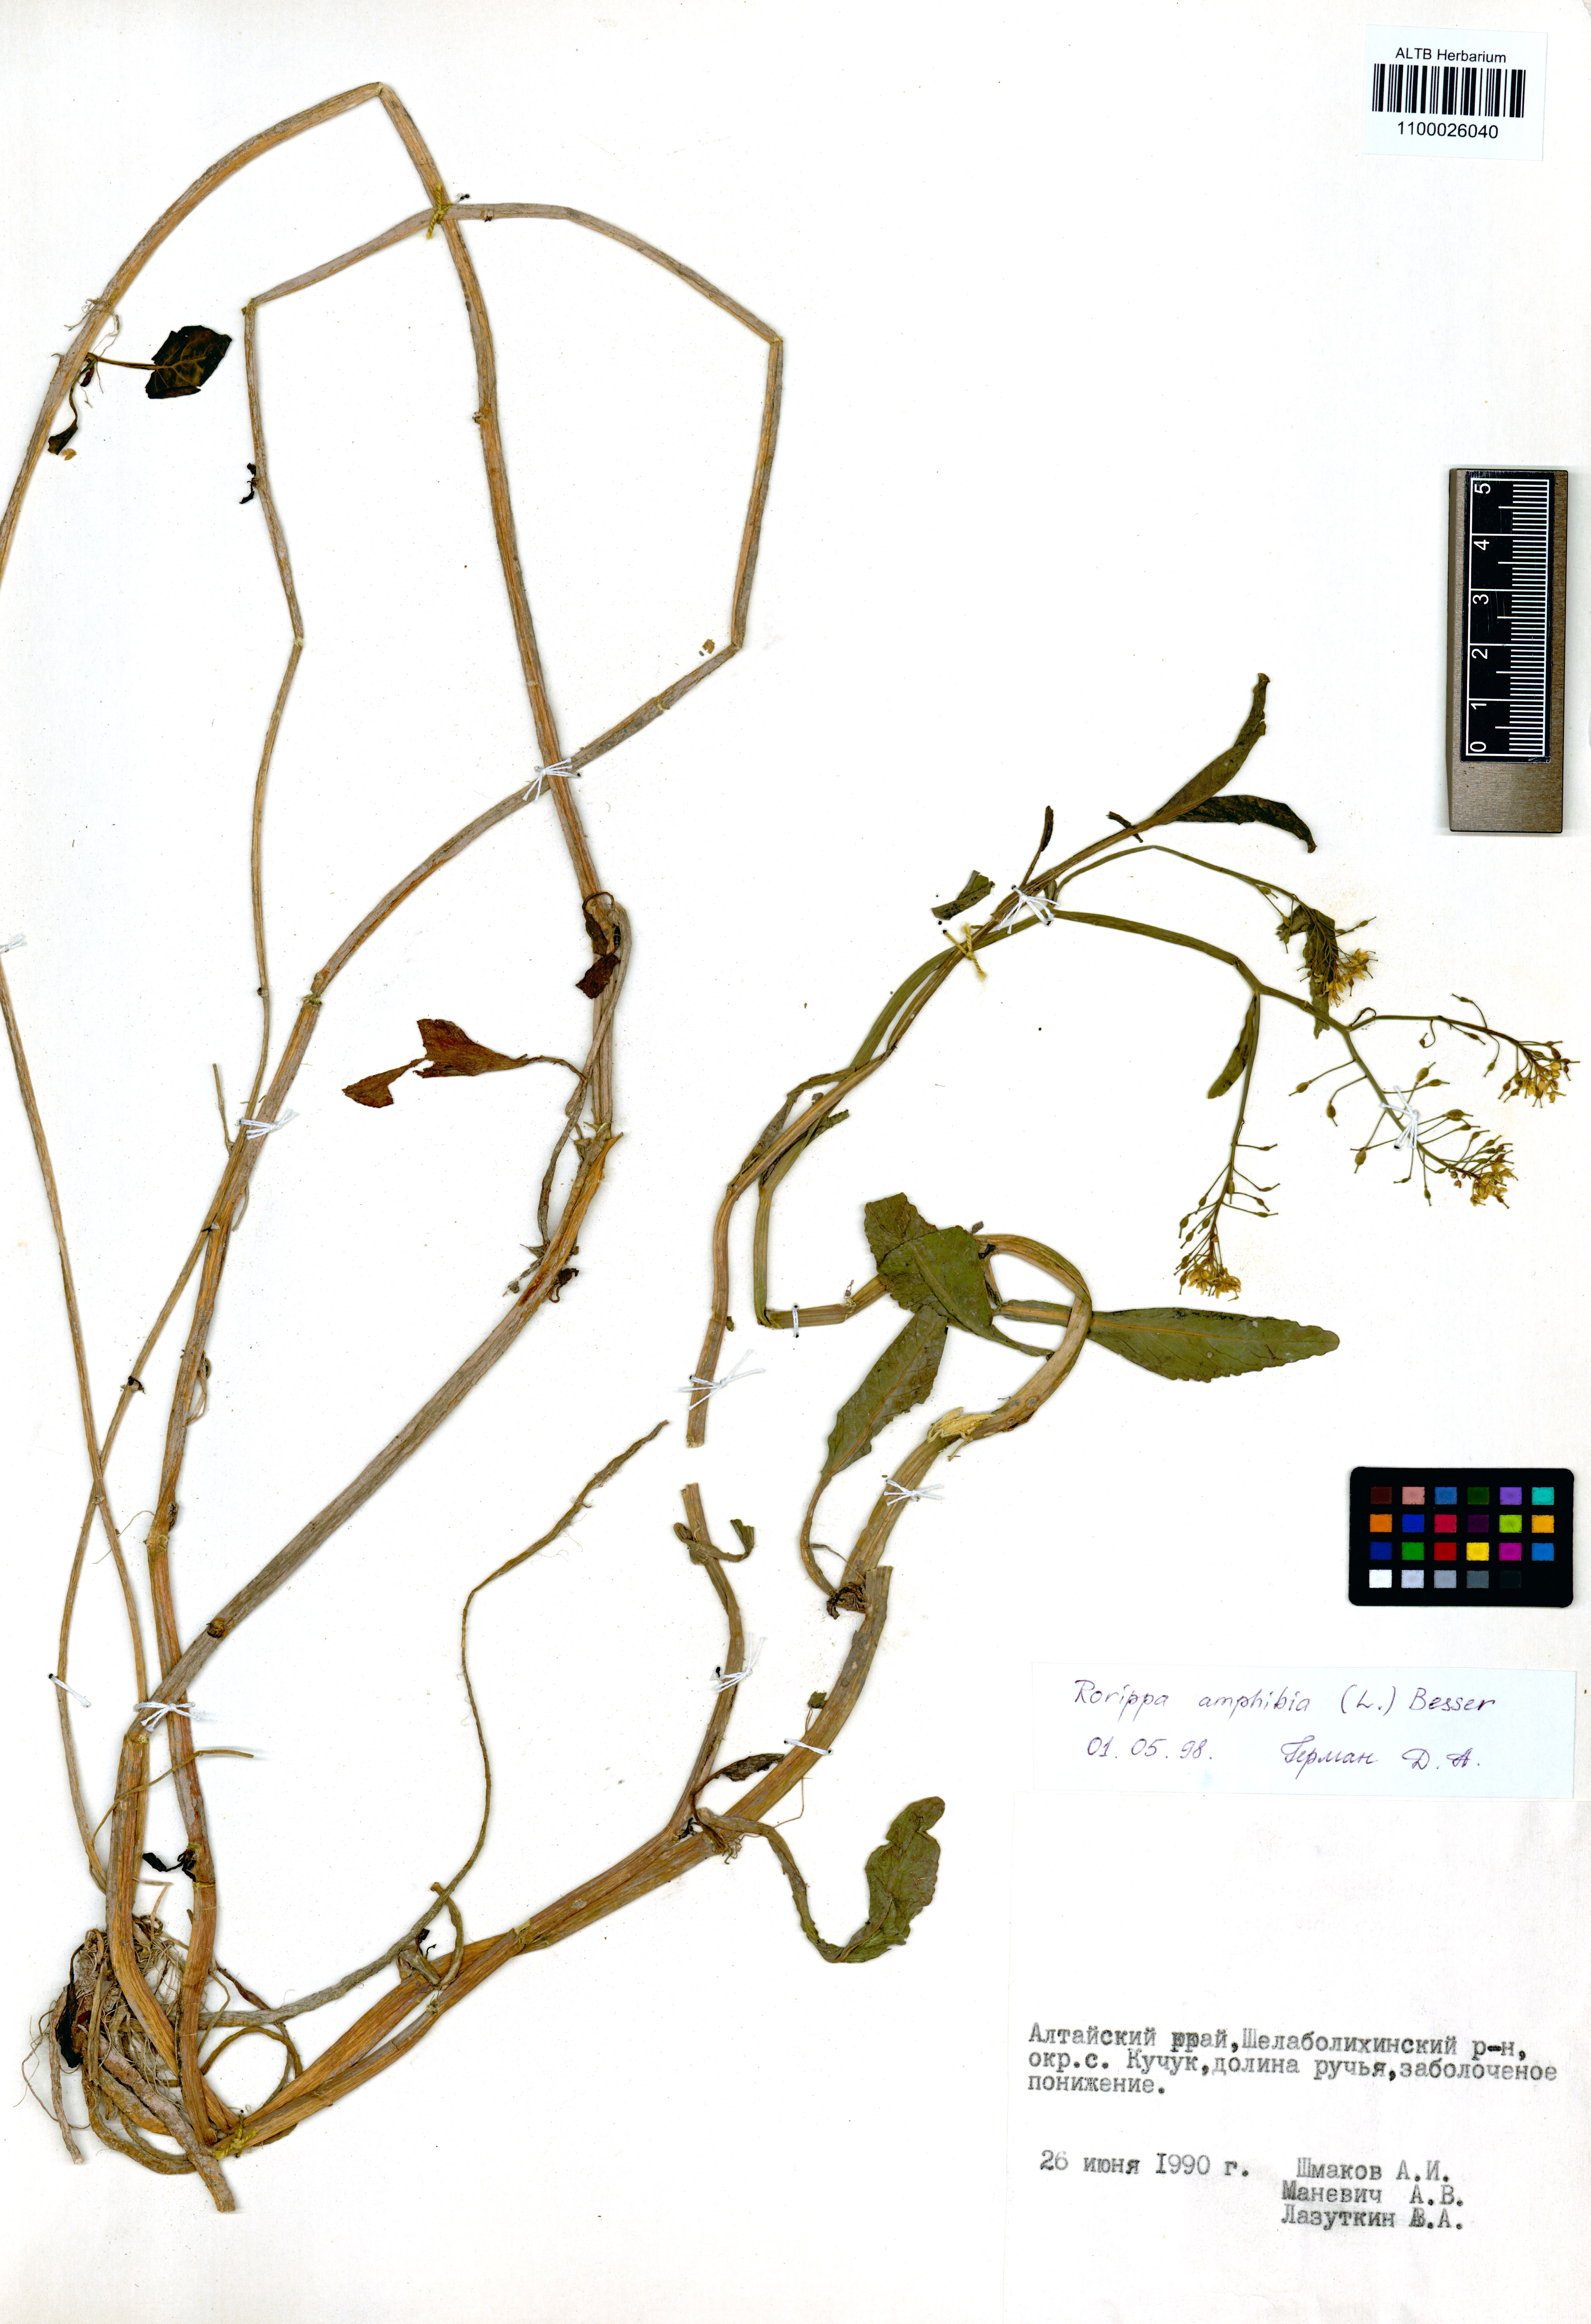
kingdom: Plantae
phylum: Tracheophyta
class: Magnoliopsida
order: Brassicales
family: Brassicaceae
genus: Rorippa
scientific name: Rorippa amphibia
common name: Great yellow-cress
